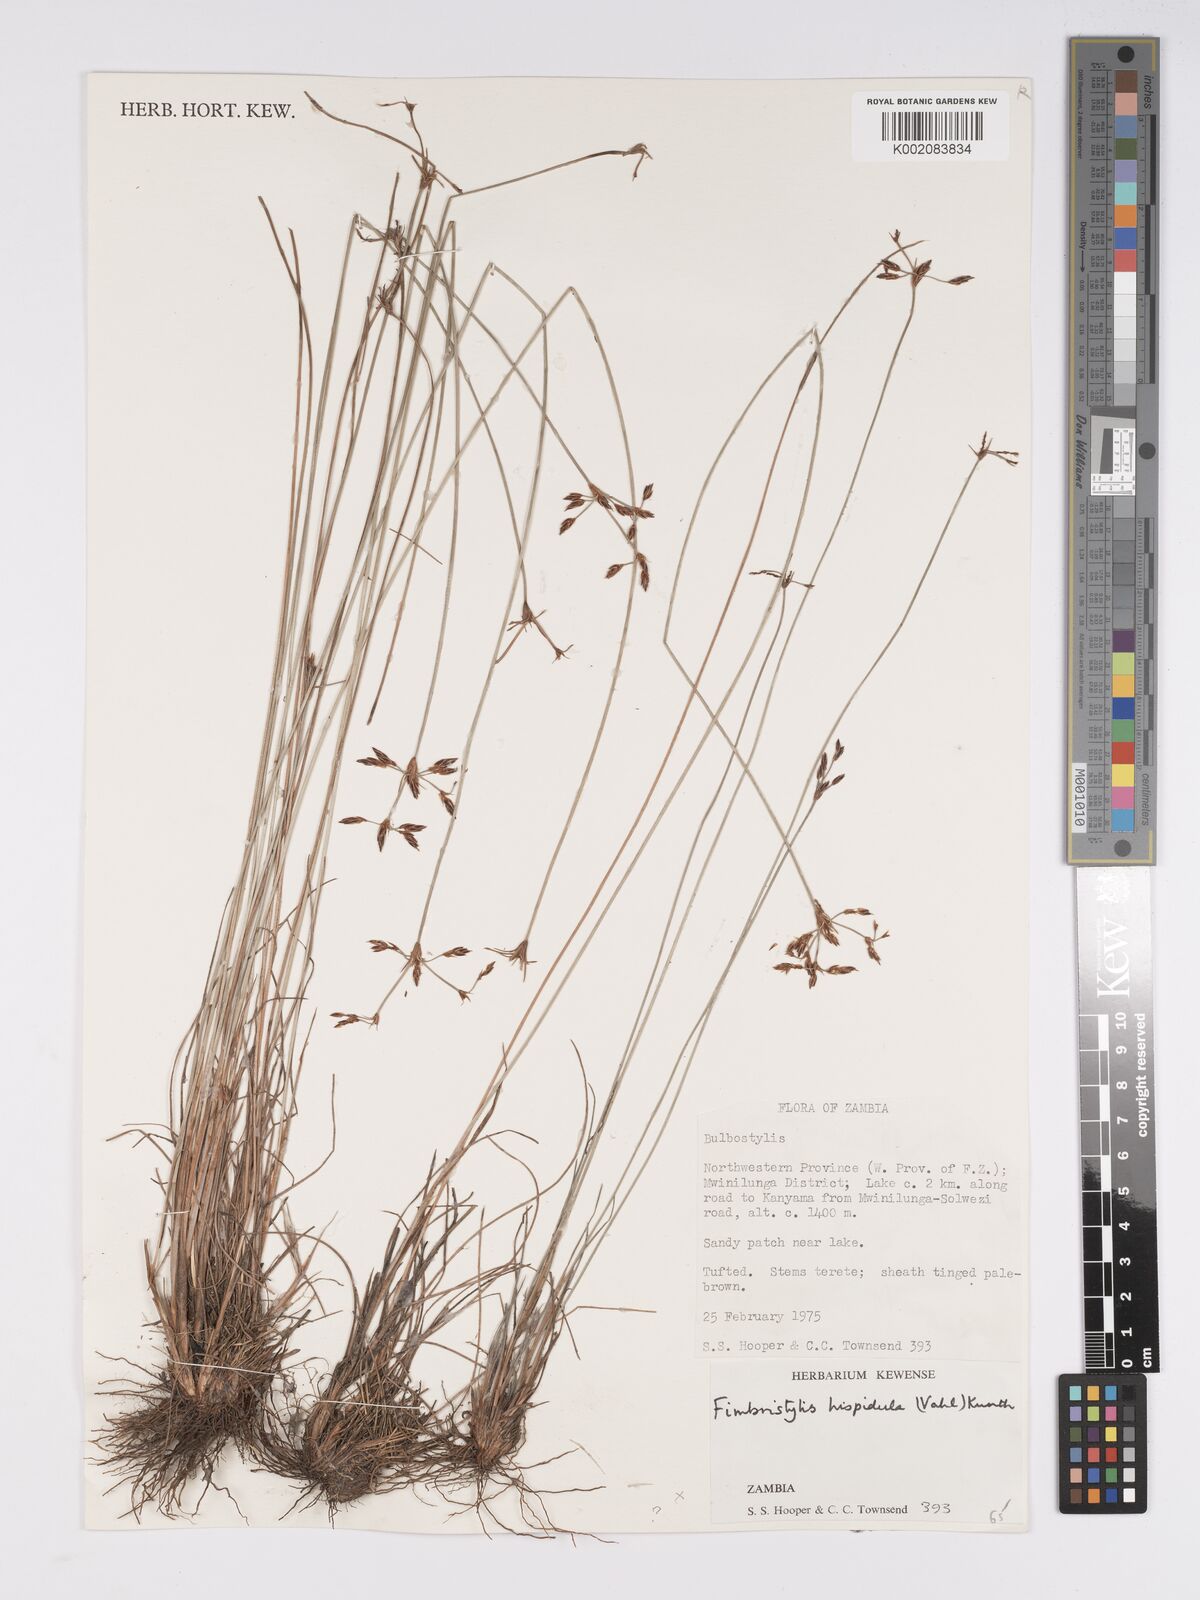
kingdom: Plantae
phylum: Tracheophyta
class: Liliopsida
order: Poales
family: Cyperaceae
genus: Bulbostylis
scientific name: Bulbostylis hispidula
